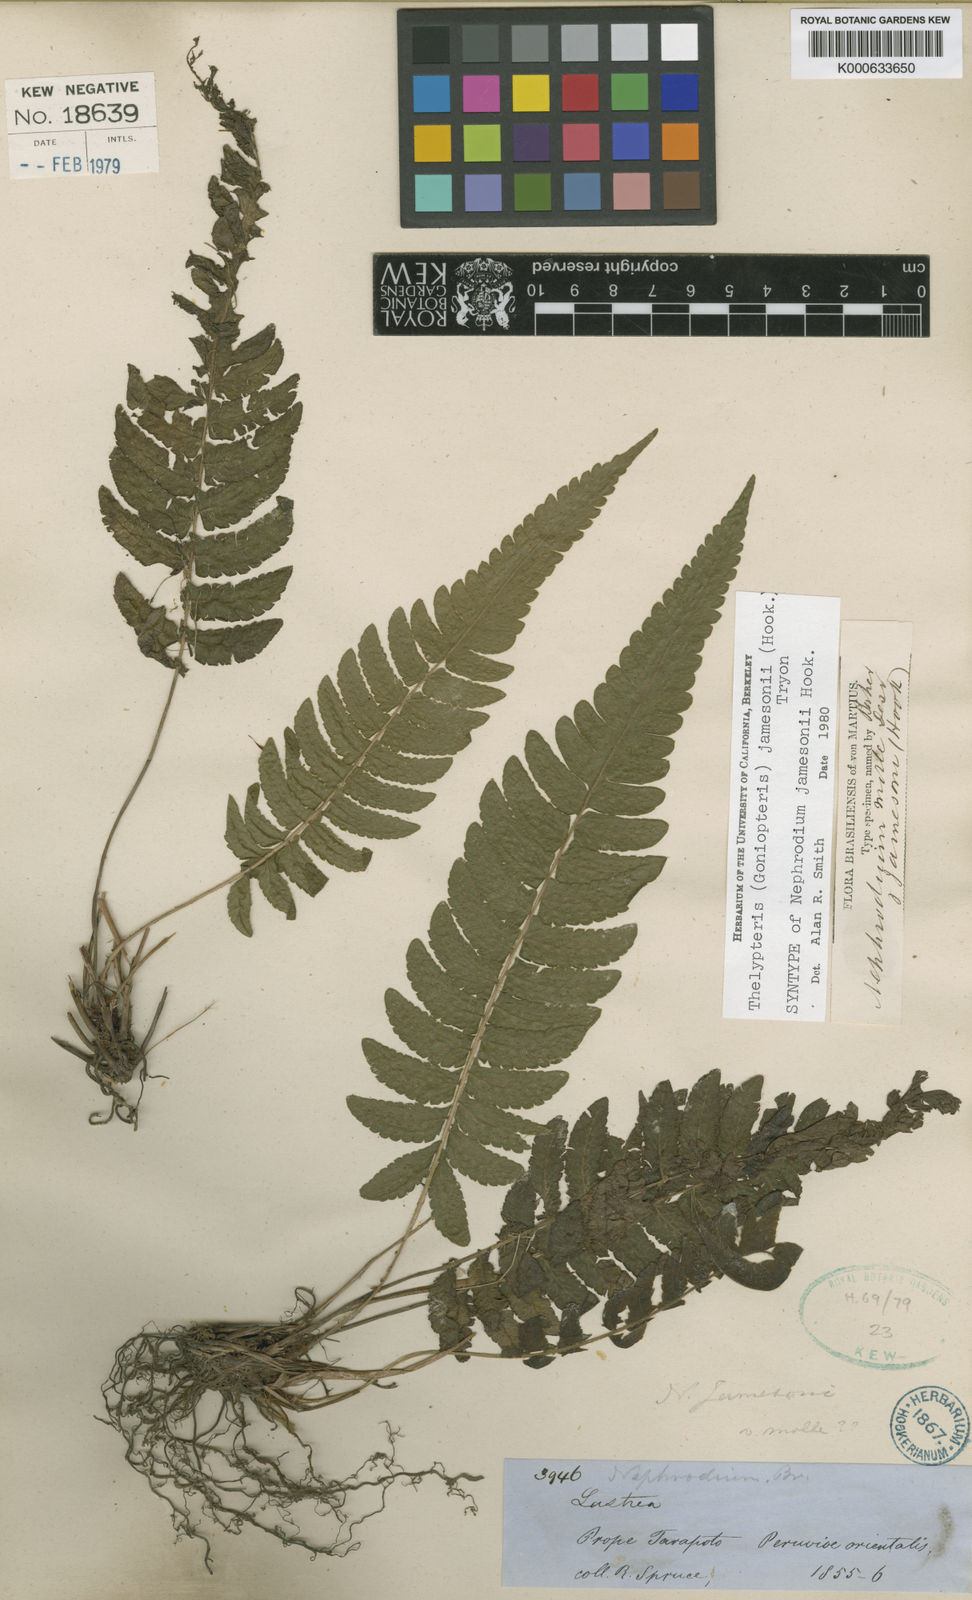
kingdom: Plantae
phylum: Tracheophyta
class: Polypodiopsida
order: Polypodiales
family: Thelypteridaceae
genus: Goniopteris
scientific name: Goniopteris jamesonii
